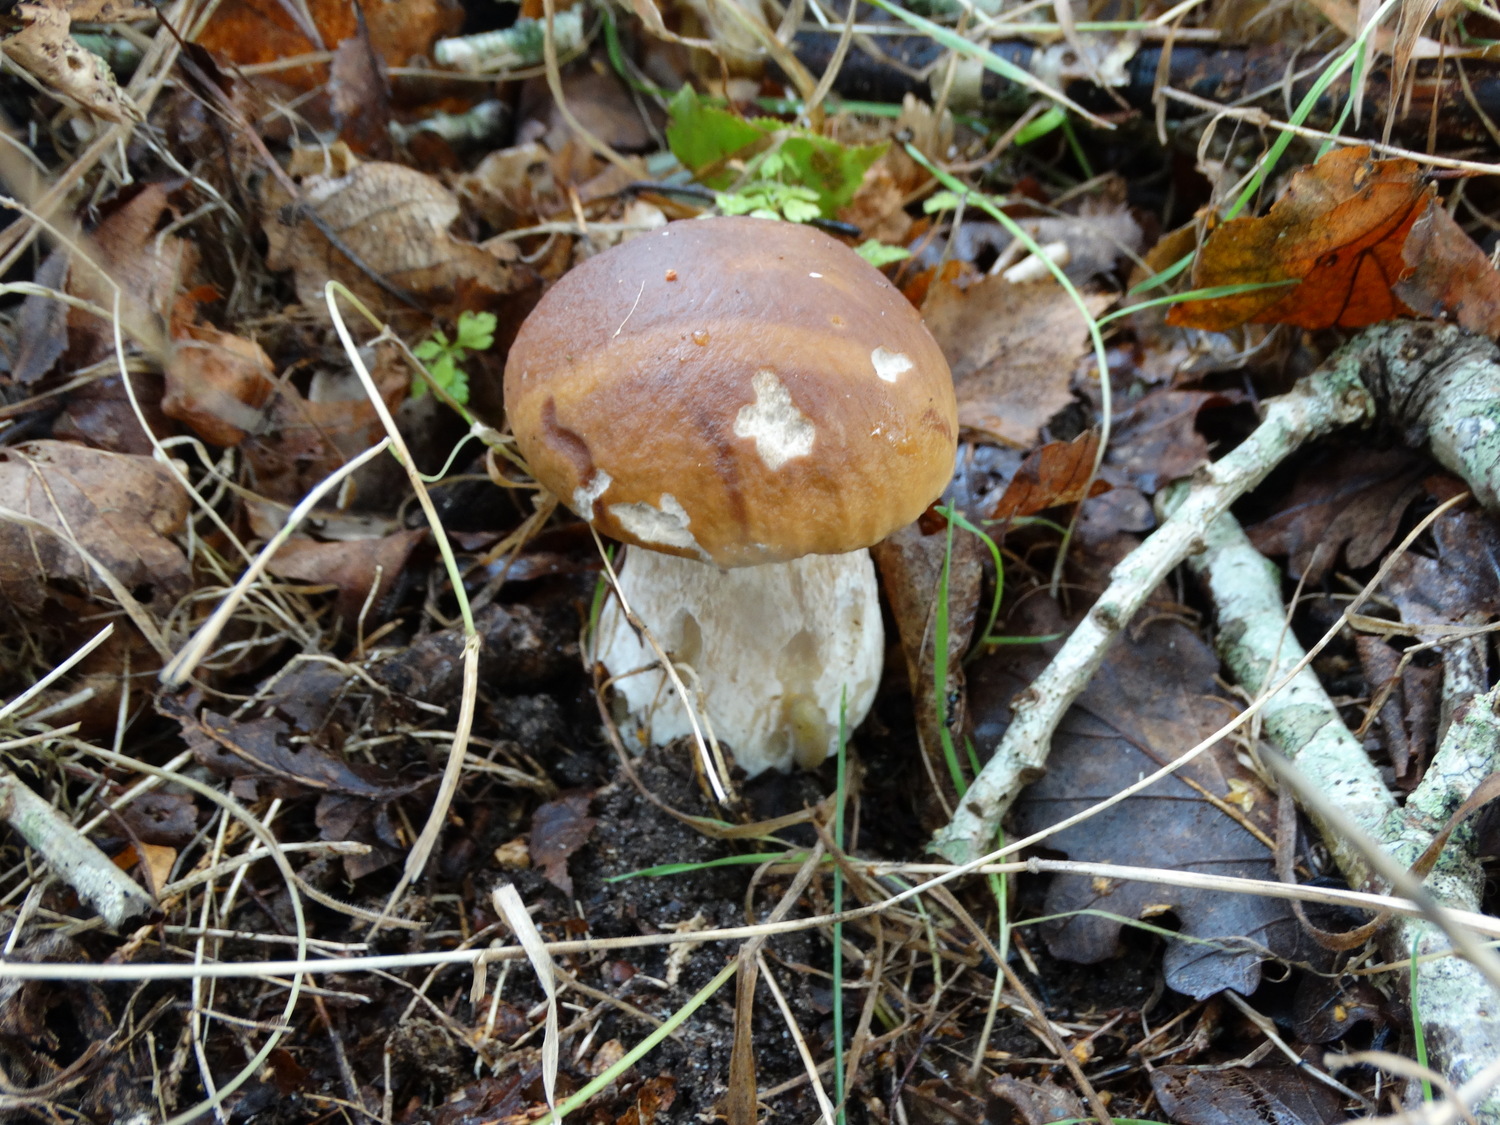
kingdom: Fungi
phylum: Basidiomycota
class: Agaricomycetes
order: Boletales
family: Boletaceae
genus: Boletus
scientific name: Boletus edulis
